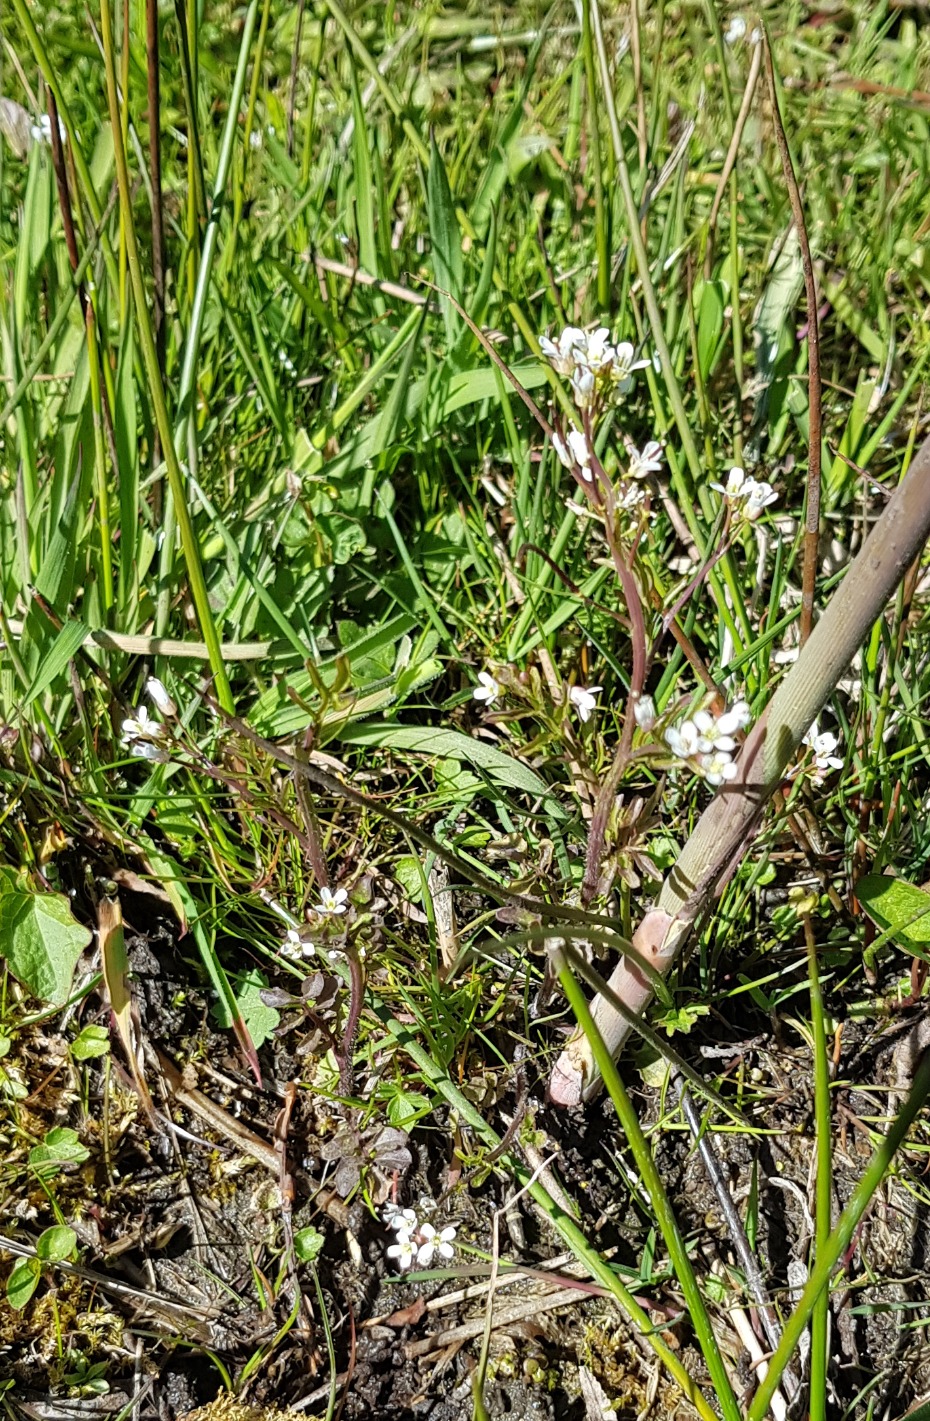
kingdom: Plantae
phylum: Tracheophyta
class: Magnoliopsida
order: Brassicales
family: Brassicaceae
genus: Cardamine
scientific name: Cardamine flexuosa
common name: Skov-springklap
